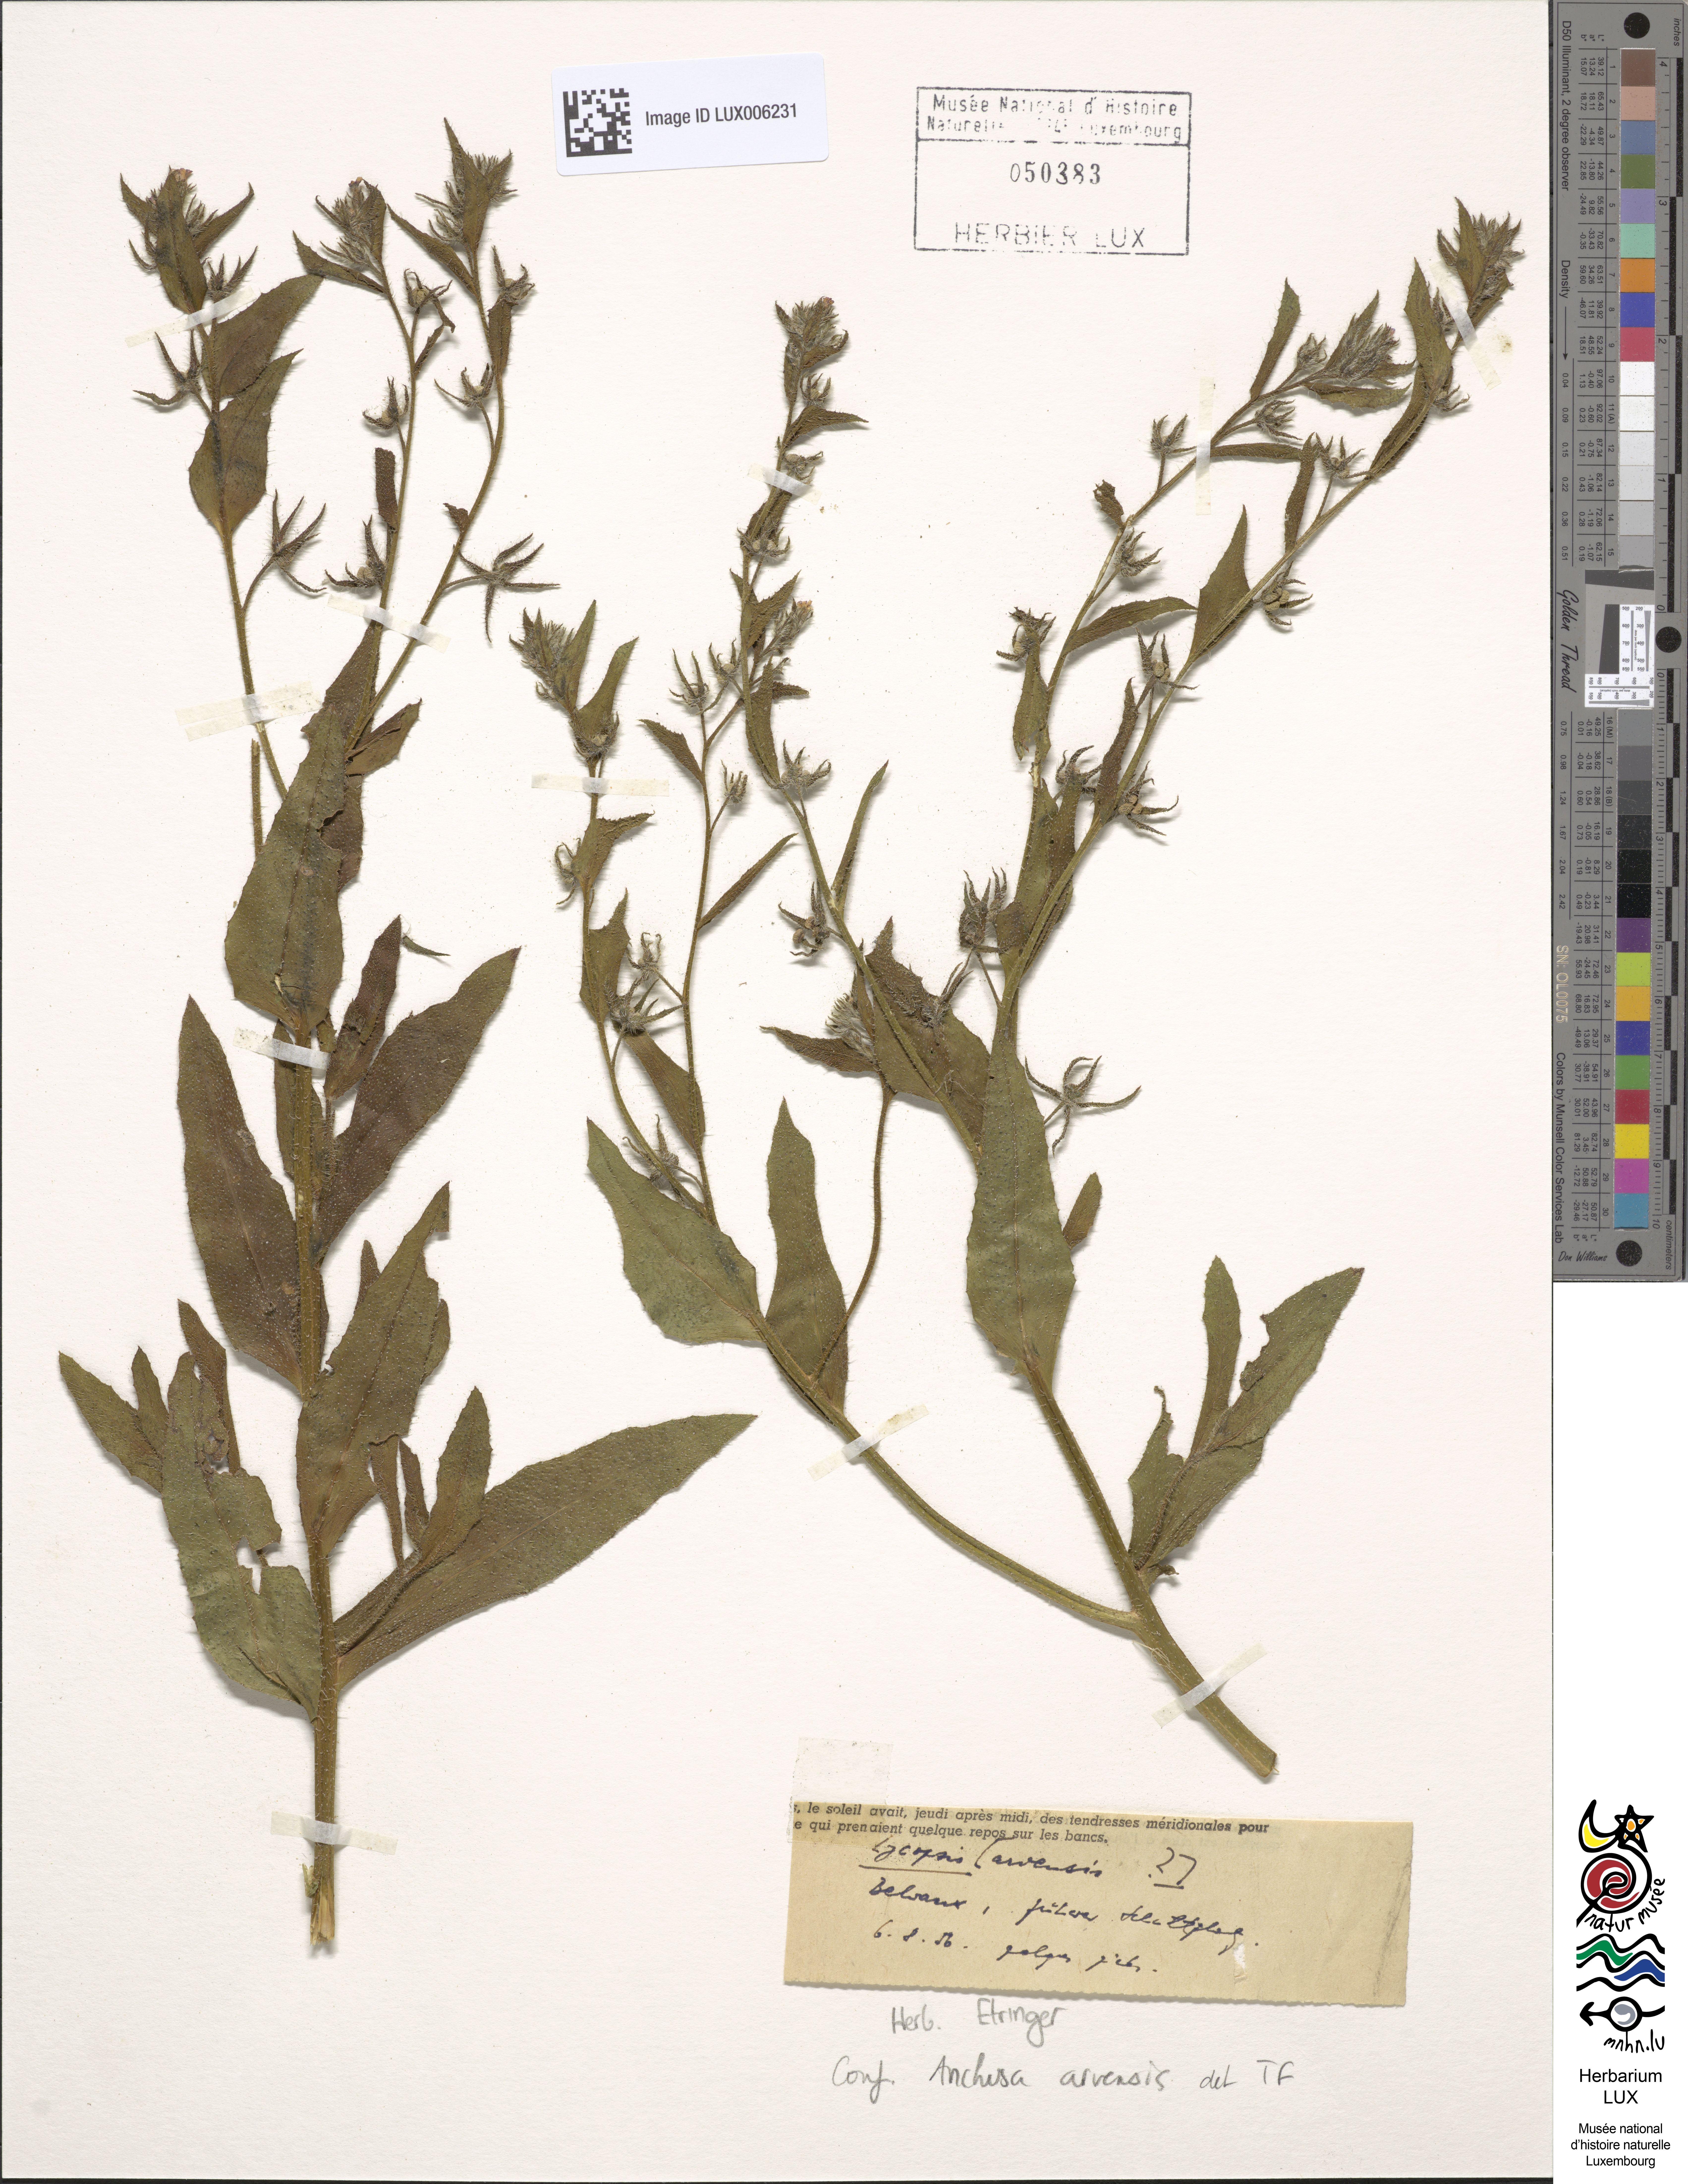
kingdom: Plantae
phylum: Tracheophyta
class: Magnoliopsida
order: Boraginales
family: Boraginaceae
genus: Lycopsis
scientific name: Lycopsis arvensis
